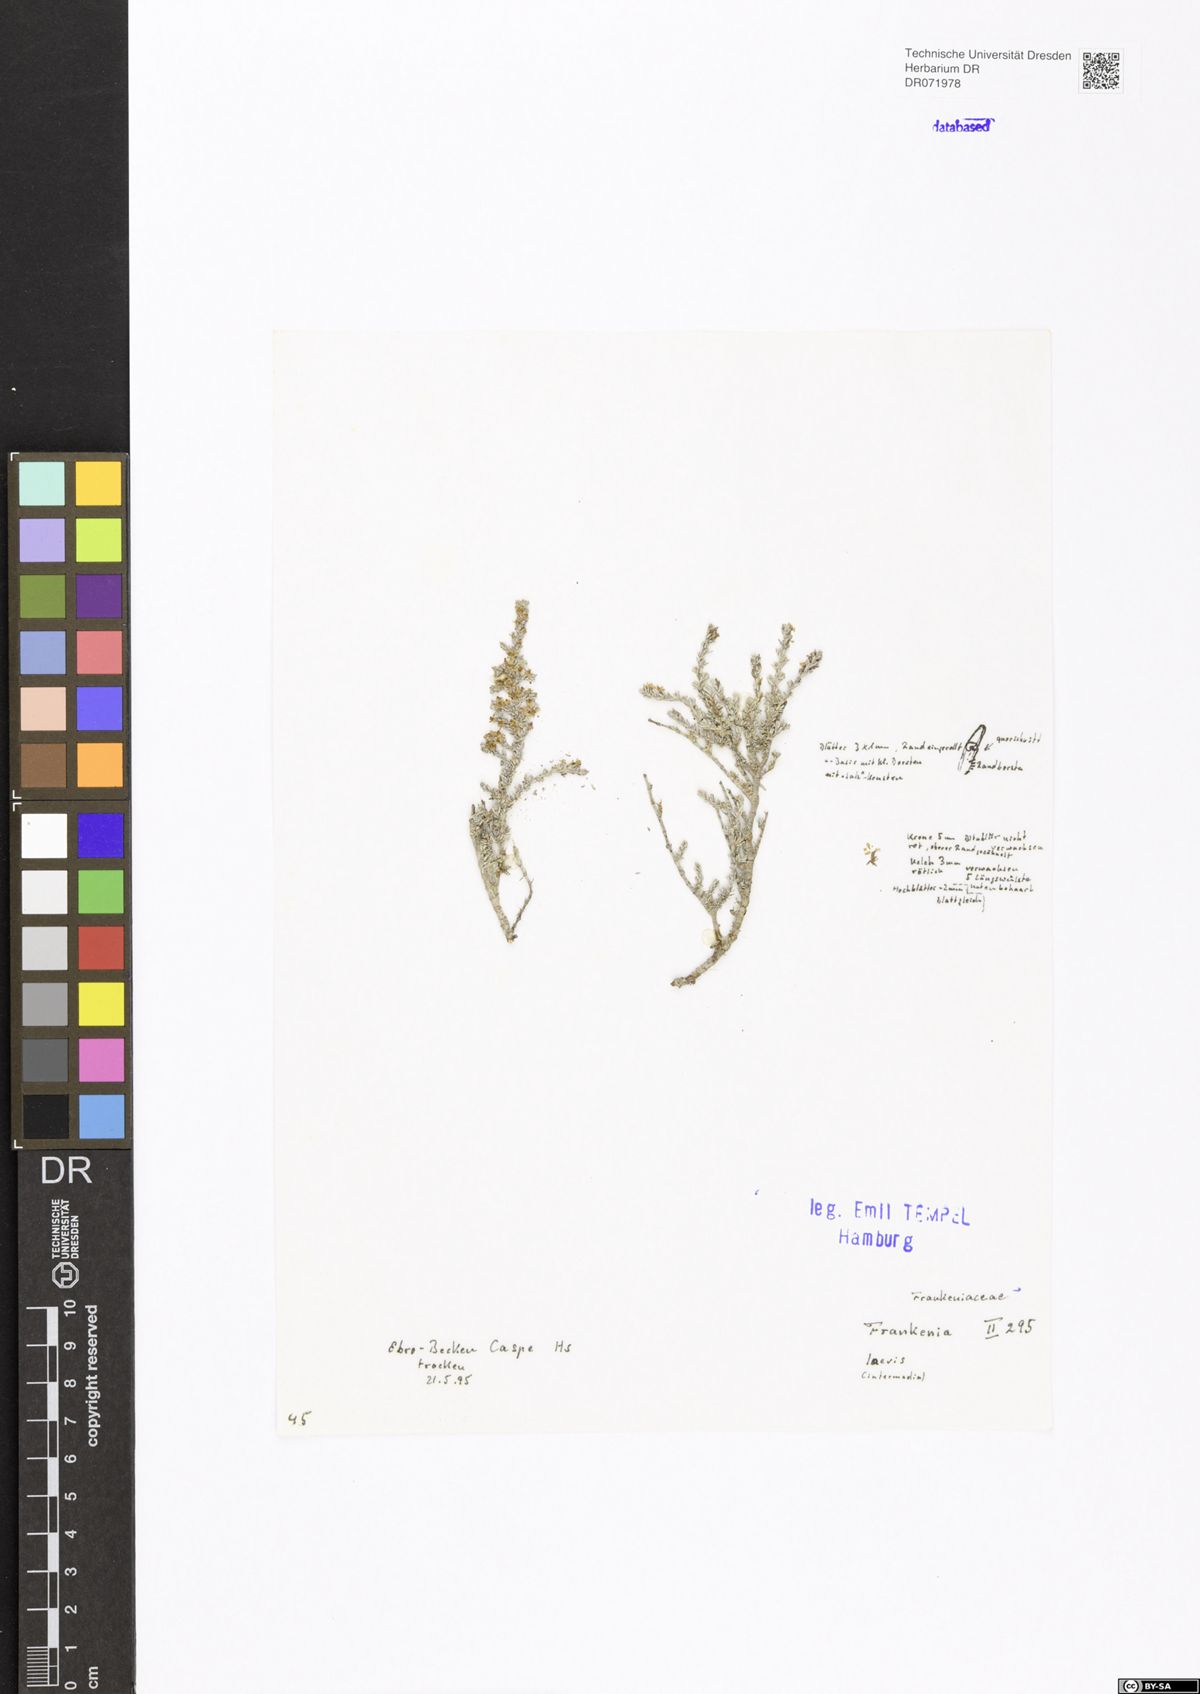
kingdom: Plantae
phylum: Tracheophyta
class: Magnoliopsida
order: Caryophyllales
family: Frankeniaceae
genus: Frankenia
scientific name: Frankenia laevis
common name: Sea-heath
